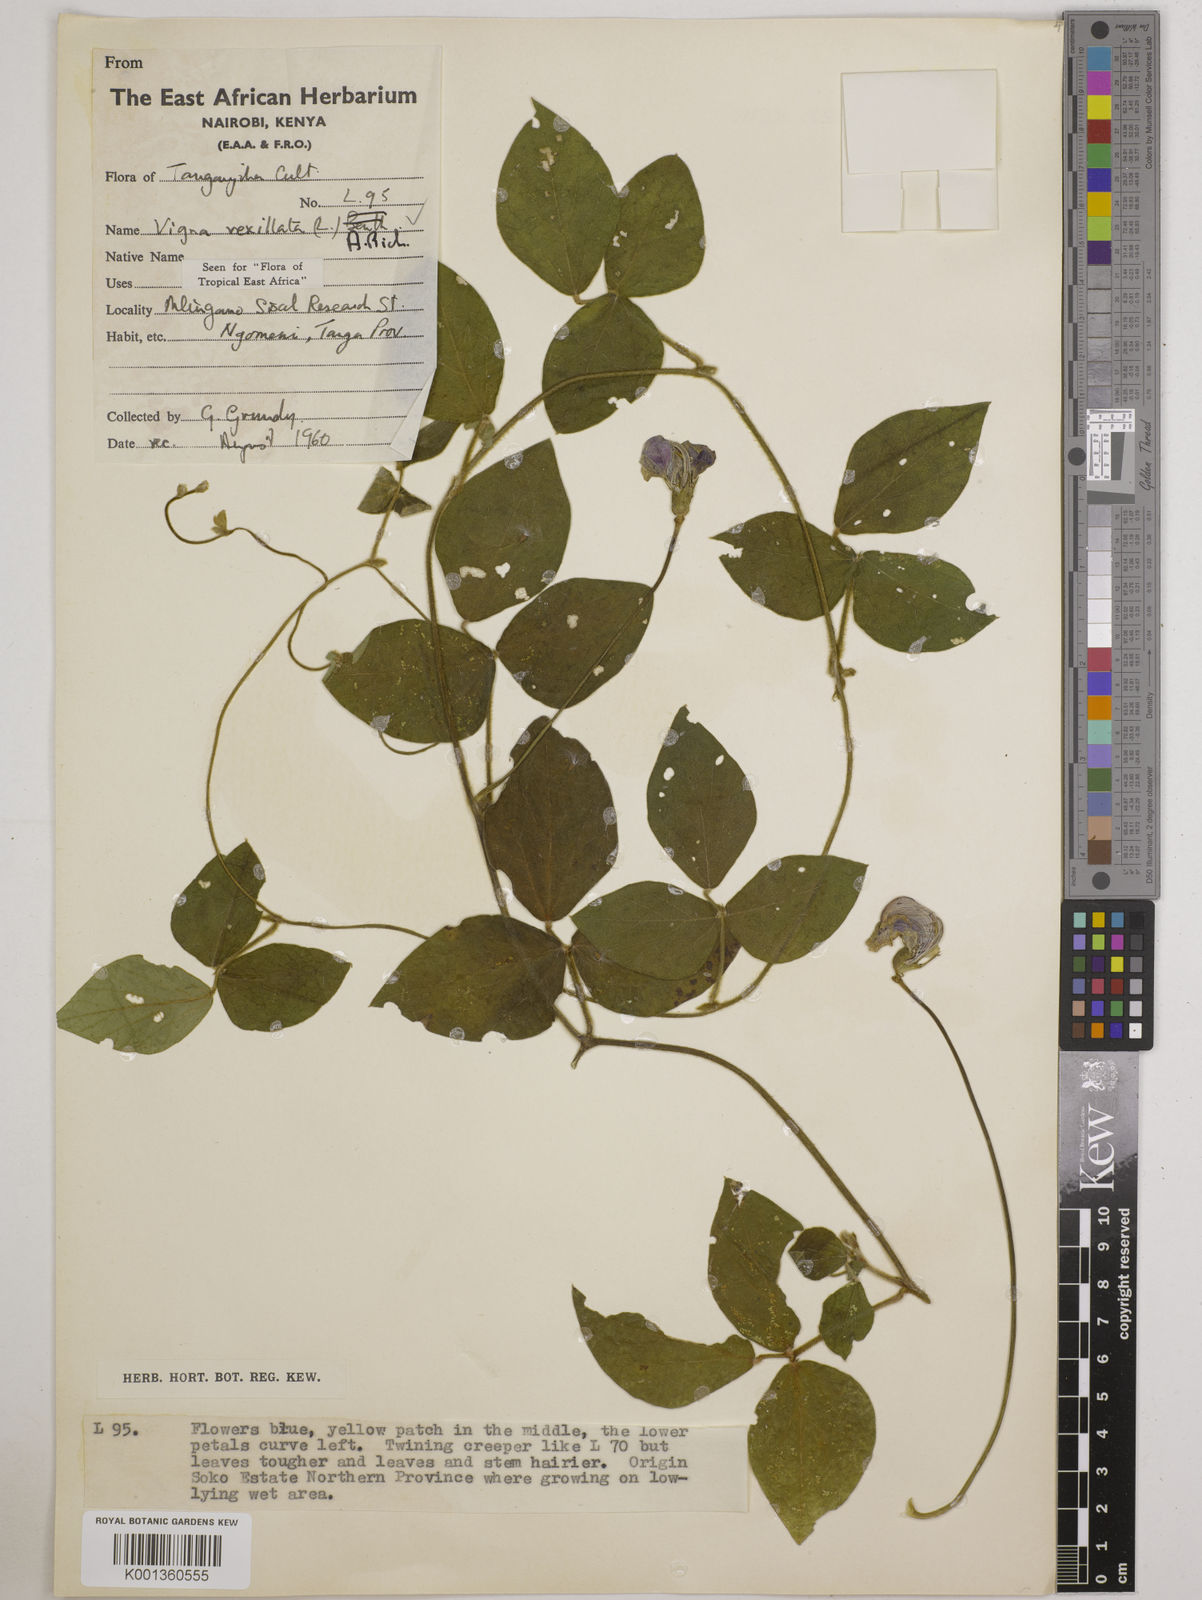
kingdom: Plantae
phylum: Tracheophyta
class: Magnoliopsida
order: Fabales
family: Fabaceae
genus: Vigna
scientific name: Vigna vexillata
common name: Zombi pea
